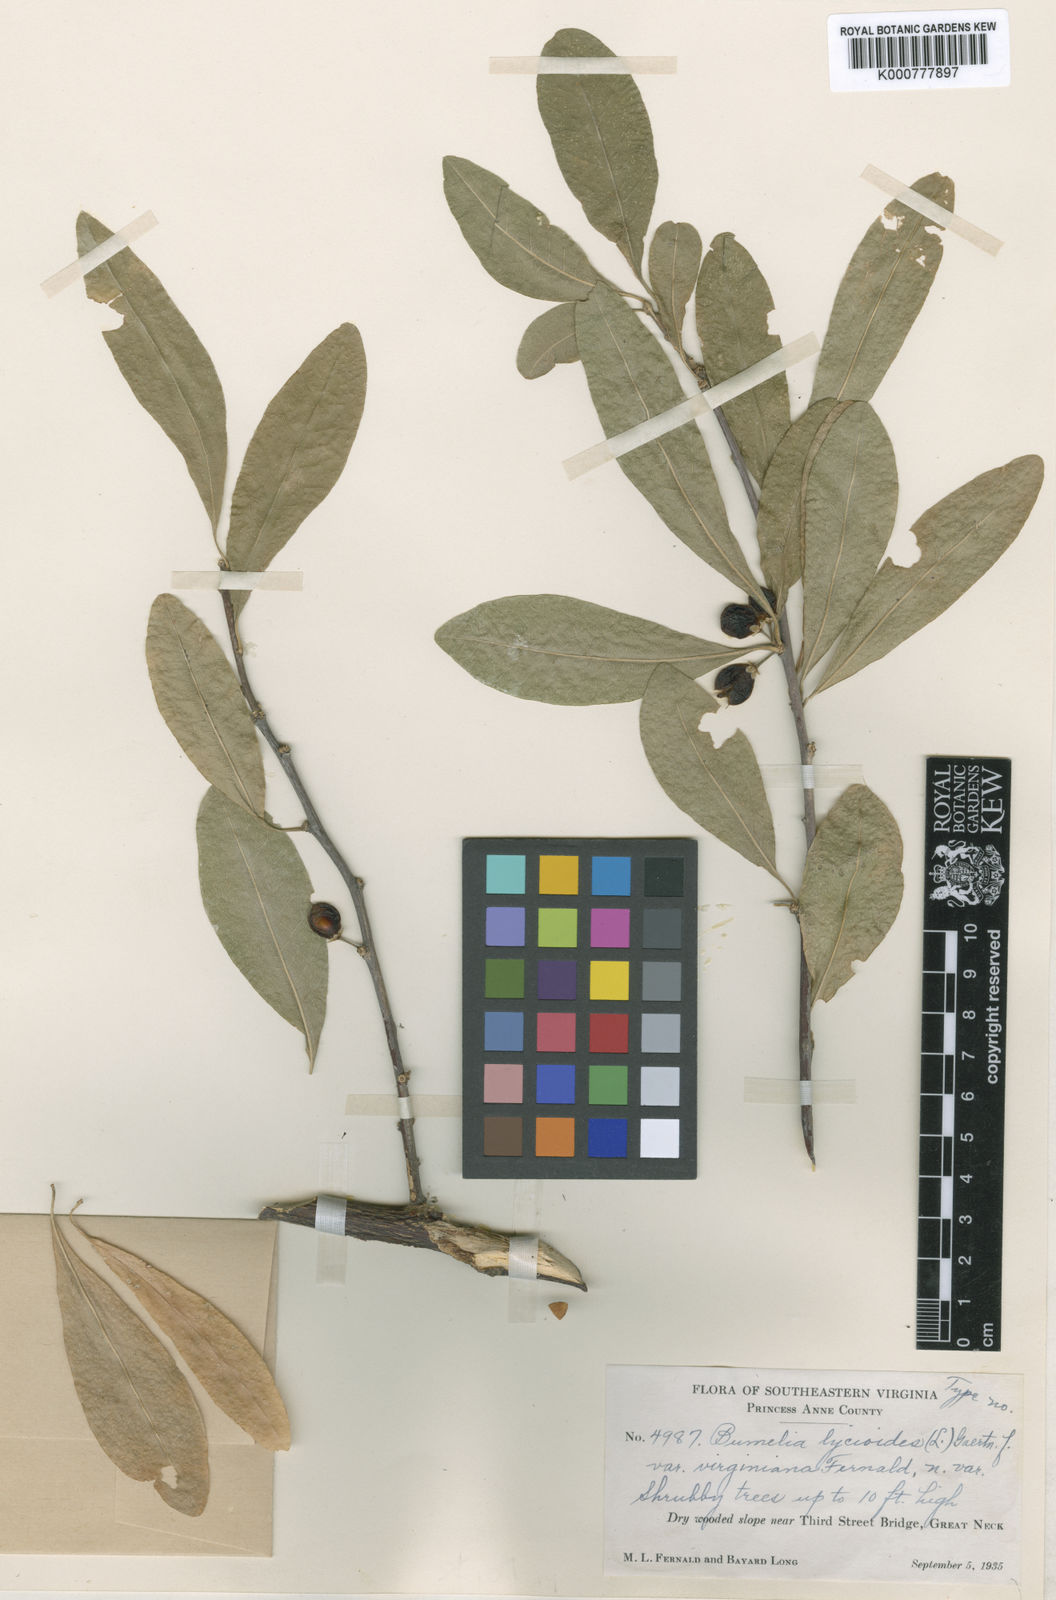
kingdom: Plantae
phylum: Tracheophyta
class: Magnoliopsida
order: Ericales
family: Sapotaceae
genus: Sideroxylon
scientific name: Sideroxylon lycioides
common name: Buckthorn bumelia
